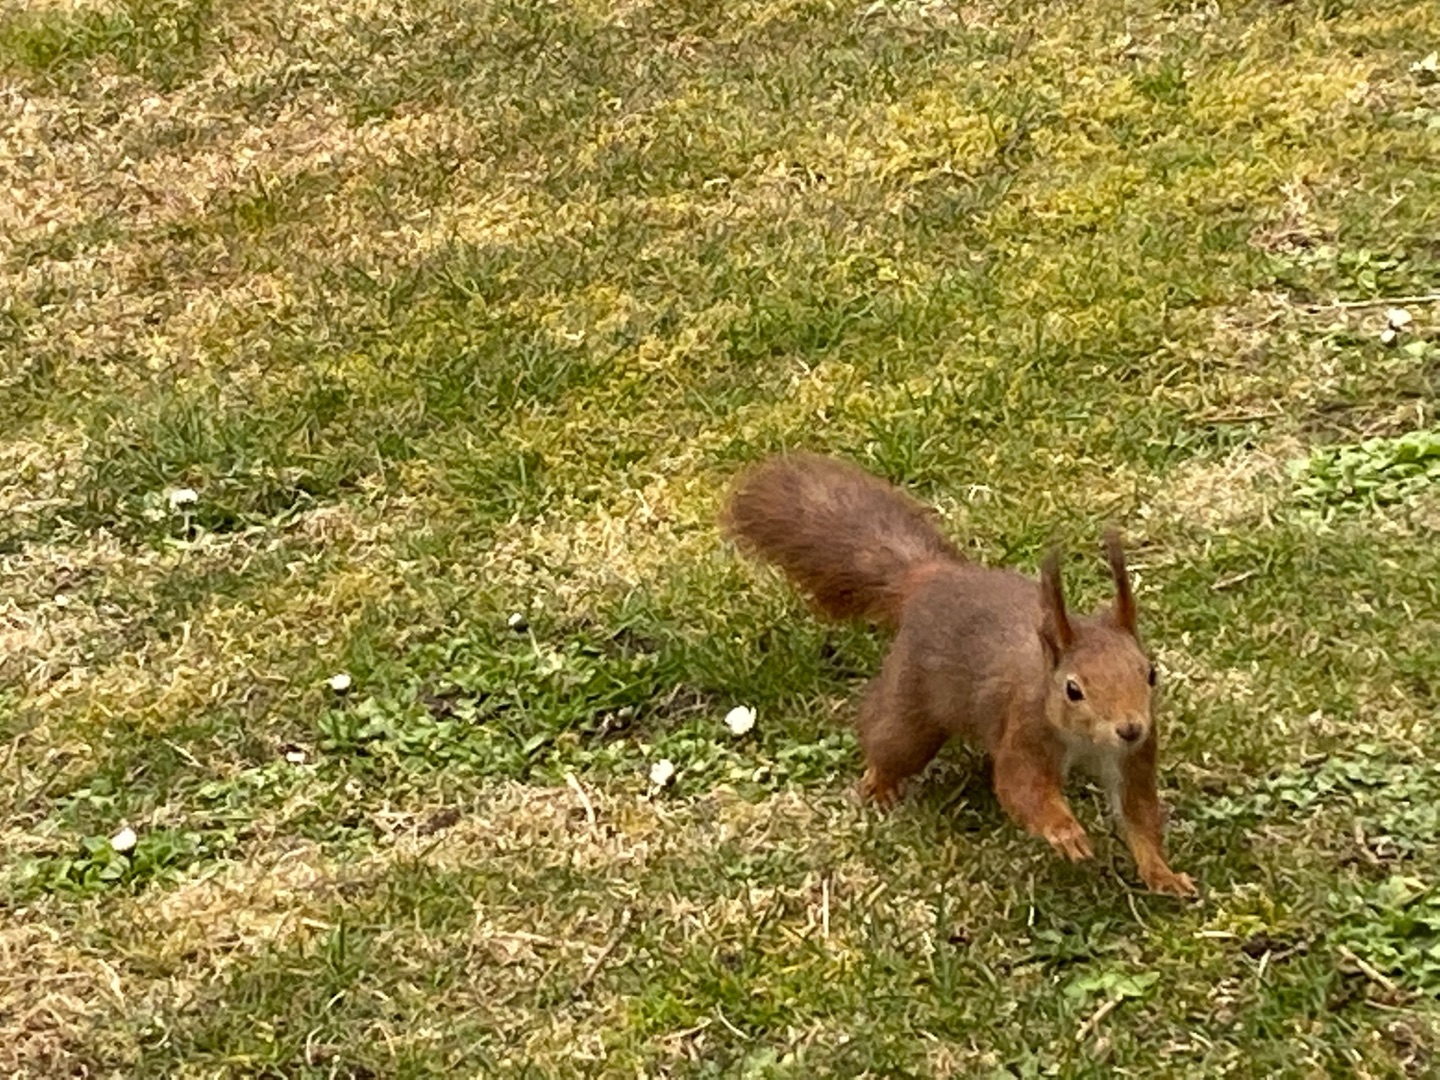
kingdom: Animalia
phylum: Chordata
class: Mammalia
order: Rodentia
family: Sciuridae
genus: Sciurus
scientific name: Sciurus vulgaris
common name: Egern
